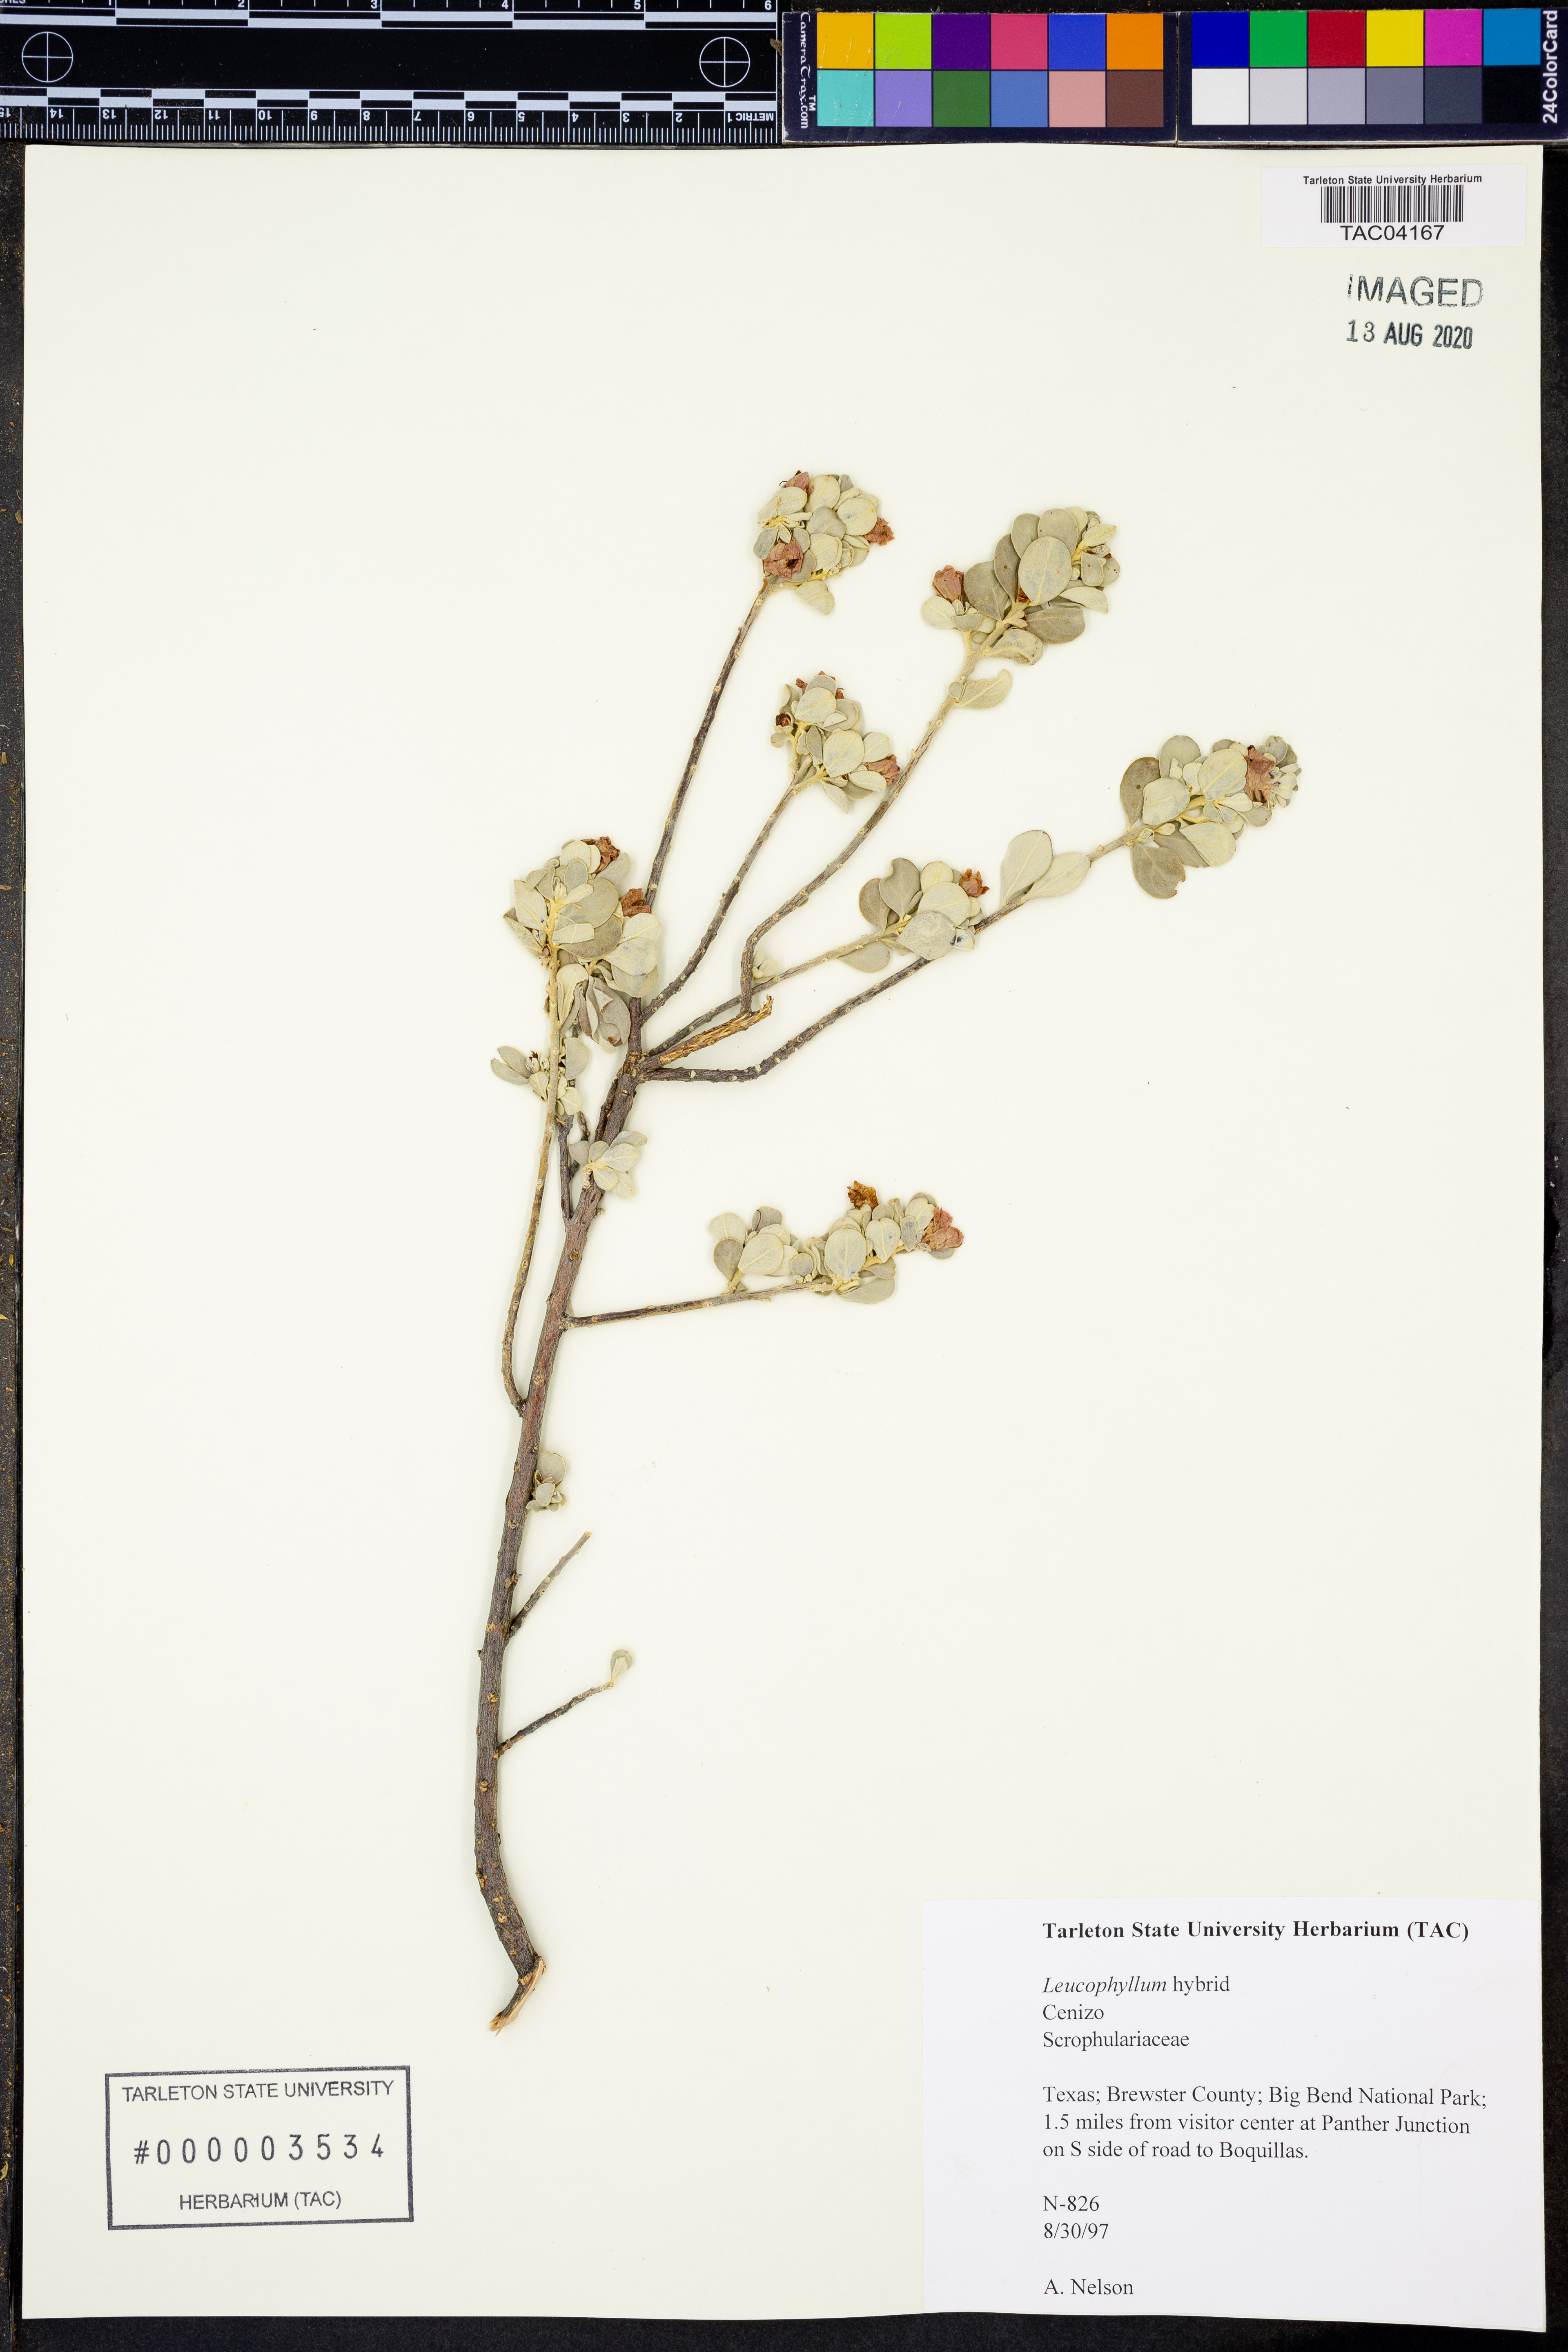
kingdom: Plantae
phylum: Tracheophyta
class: Magnoliopsida
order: Lamiales
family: Scrophulariaceae
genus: Leucophyllum
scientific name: Leucophyllum
